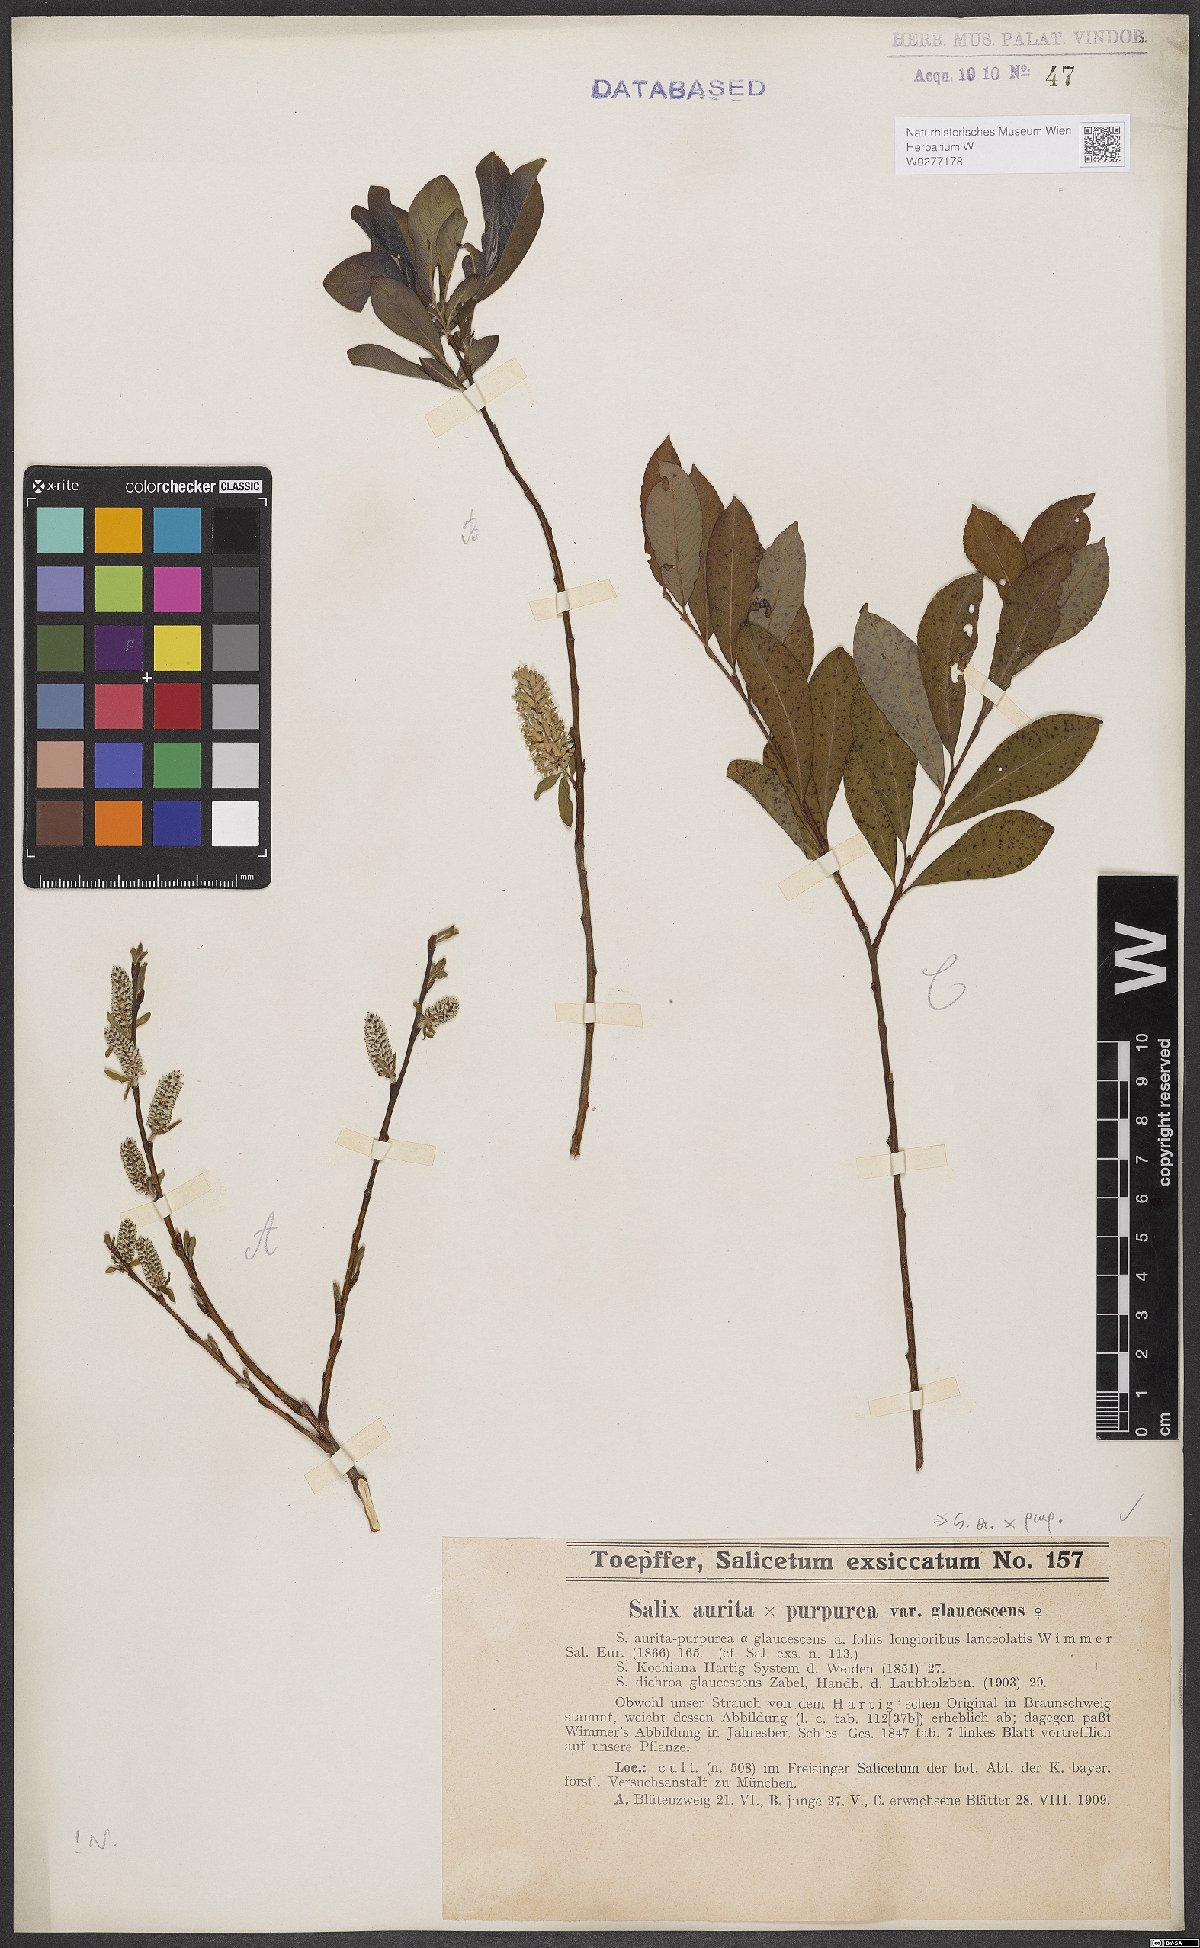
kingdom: Plantae
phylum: Tracheophyta
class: Magnoliopsida
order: Malpighiales
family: Salicaceae
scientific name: Salicaceae
